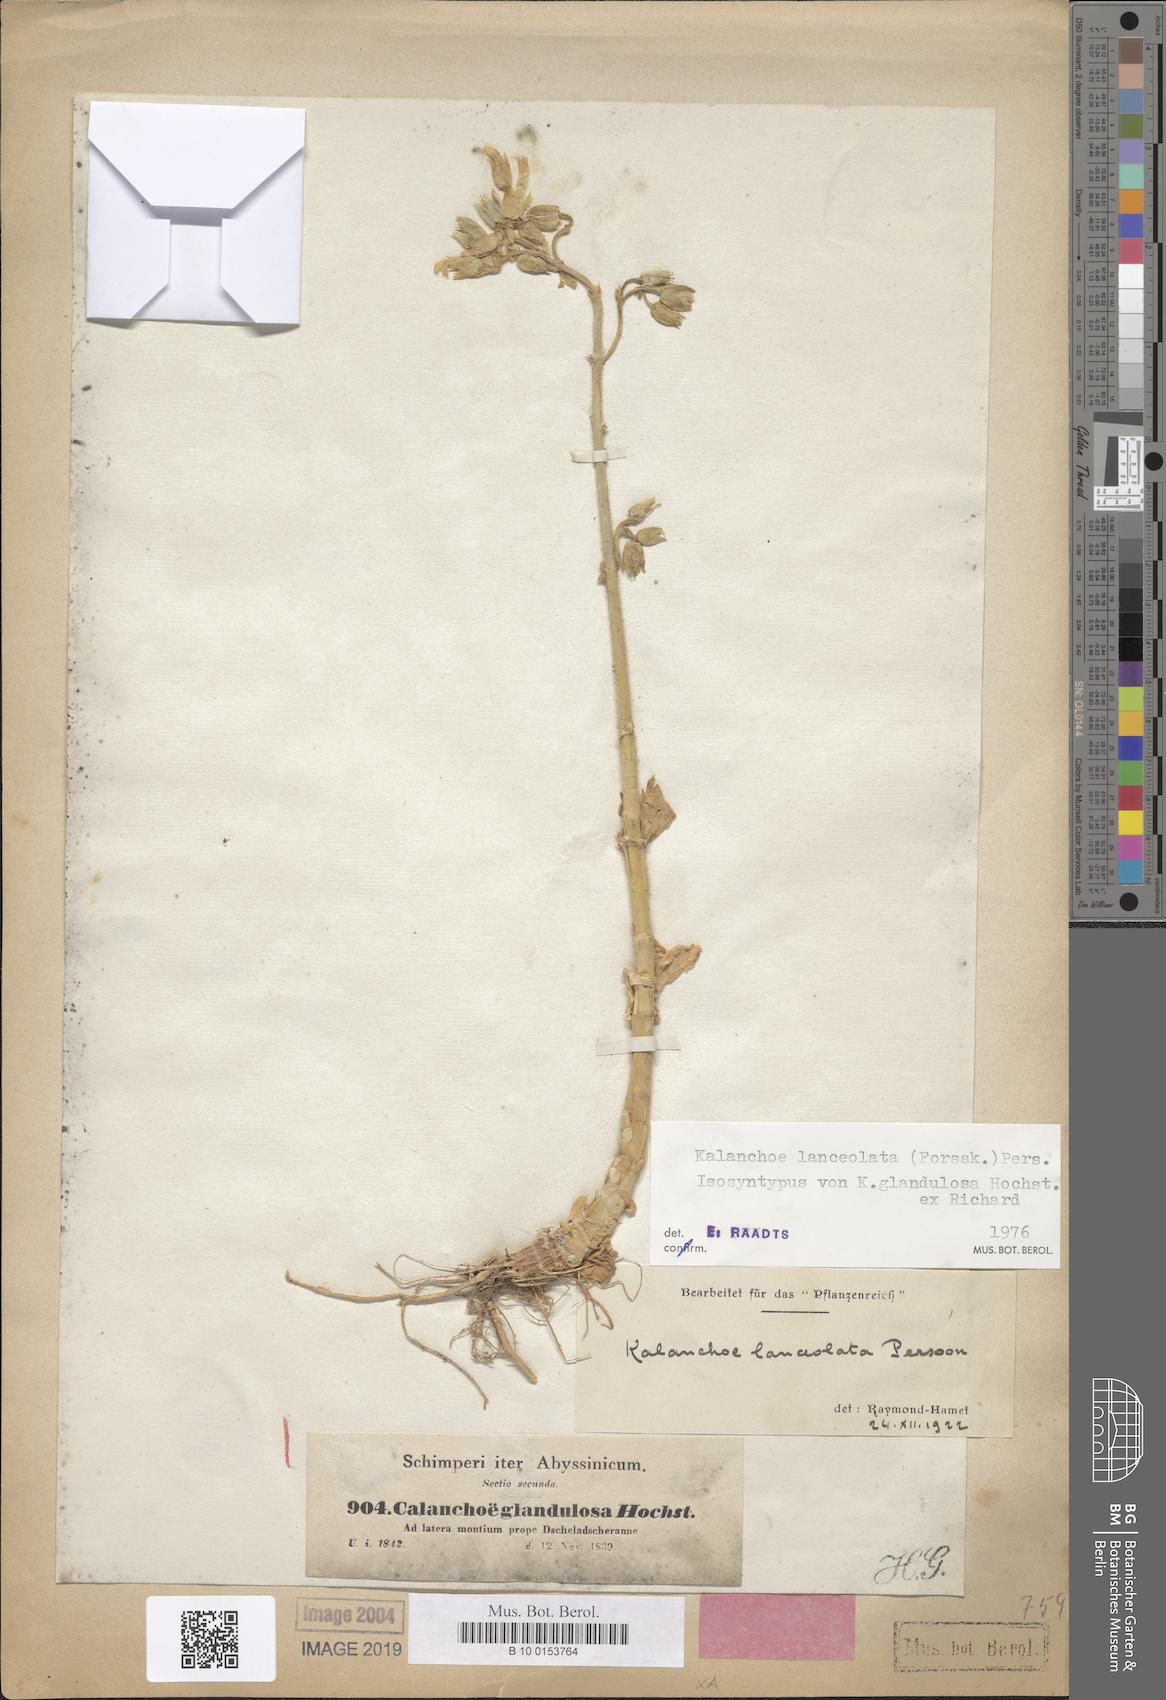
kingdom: Plantae
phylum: Tracheophyta
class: Magnoliopsida
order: Saxifragales
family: Crassulaceae
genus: Kalanchoe
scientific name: Kalanchoe lanceolata
